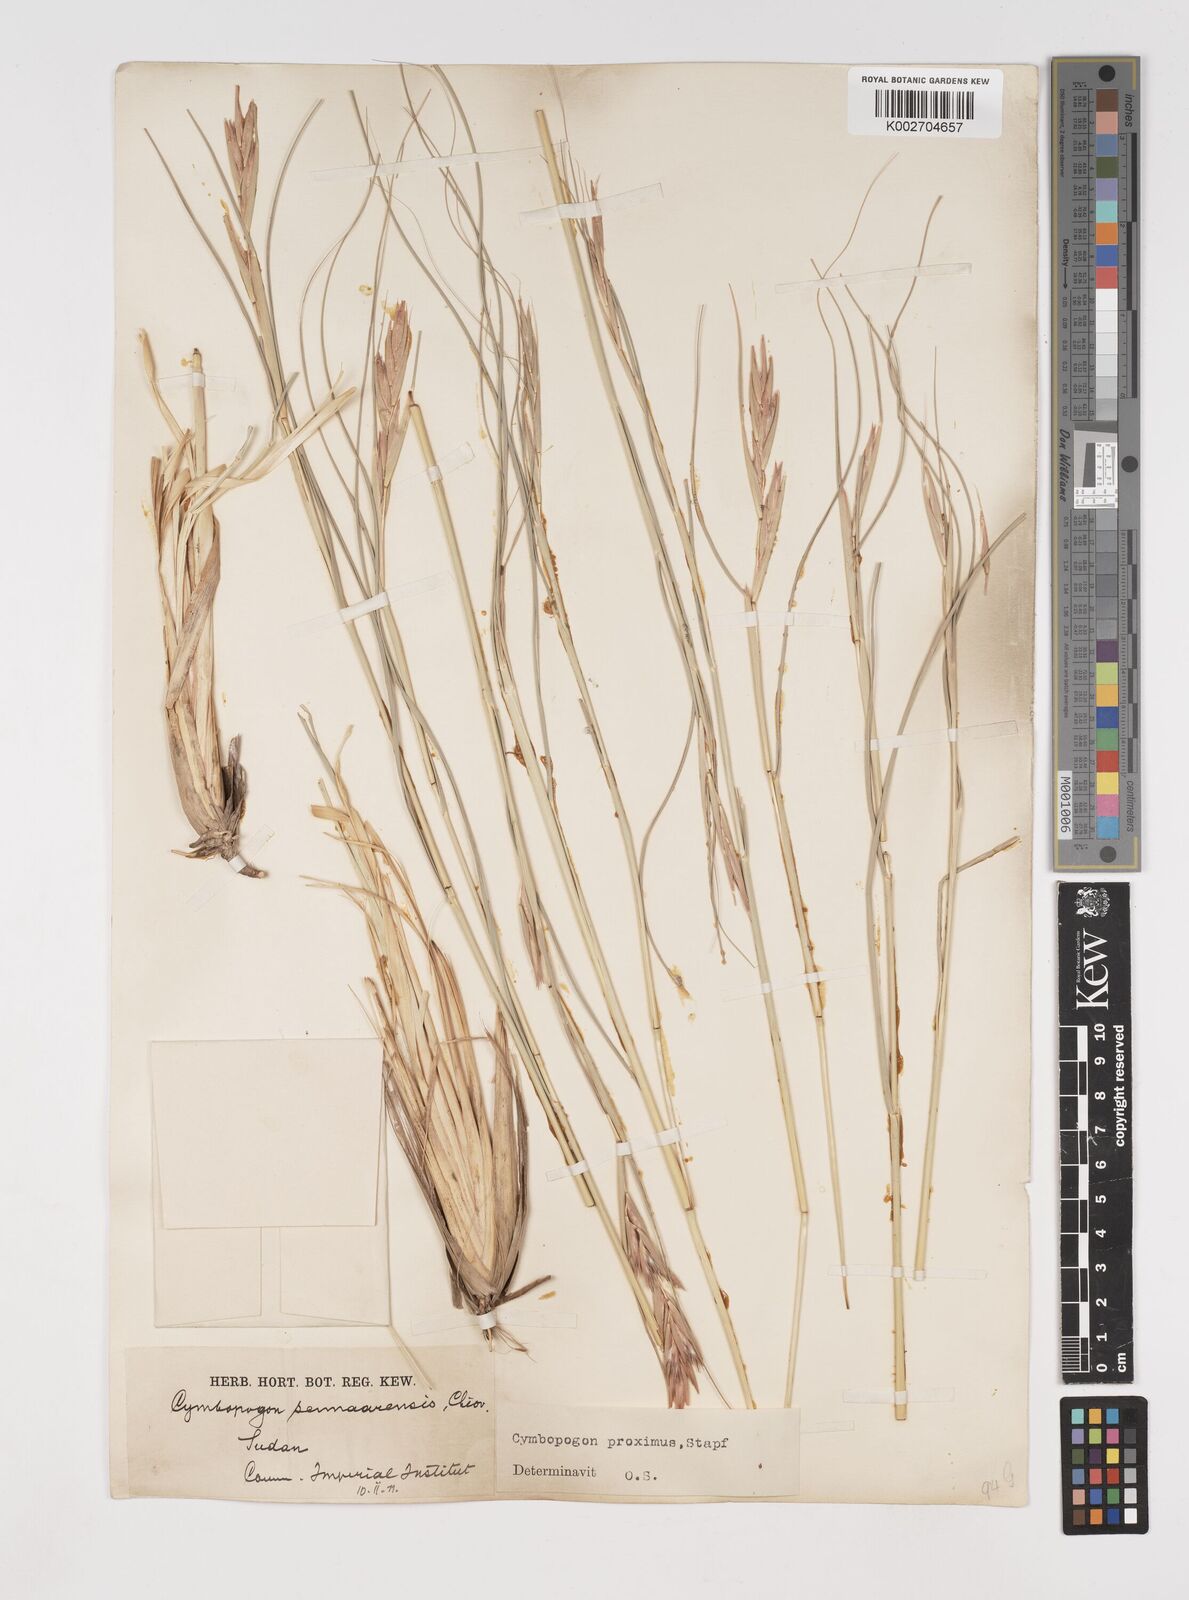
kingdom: Plantae
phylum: Tracheophyta
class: Liliopsida
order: Poales
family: Poaceae
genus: Cymbopogon
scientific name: Cymbopogon schoenanthus
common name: Geranium grass
